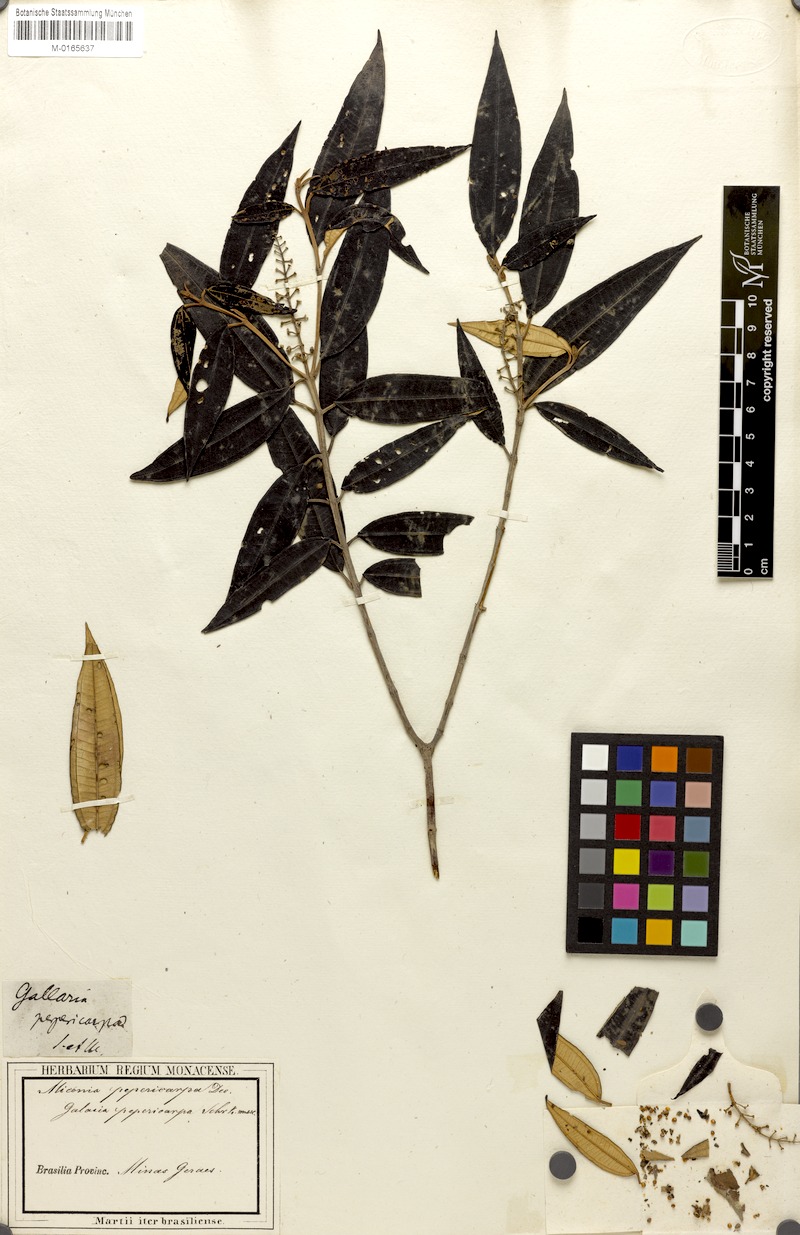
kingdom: Plantae
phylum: Tracheophyta
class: Magnoliopsida
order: Myrtales
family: Melastomataceae
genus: Miconia
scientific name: Miconia pepericarpa
